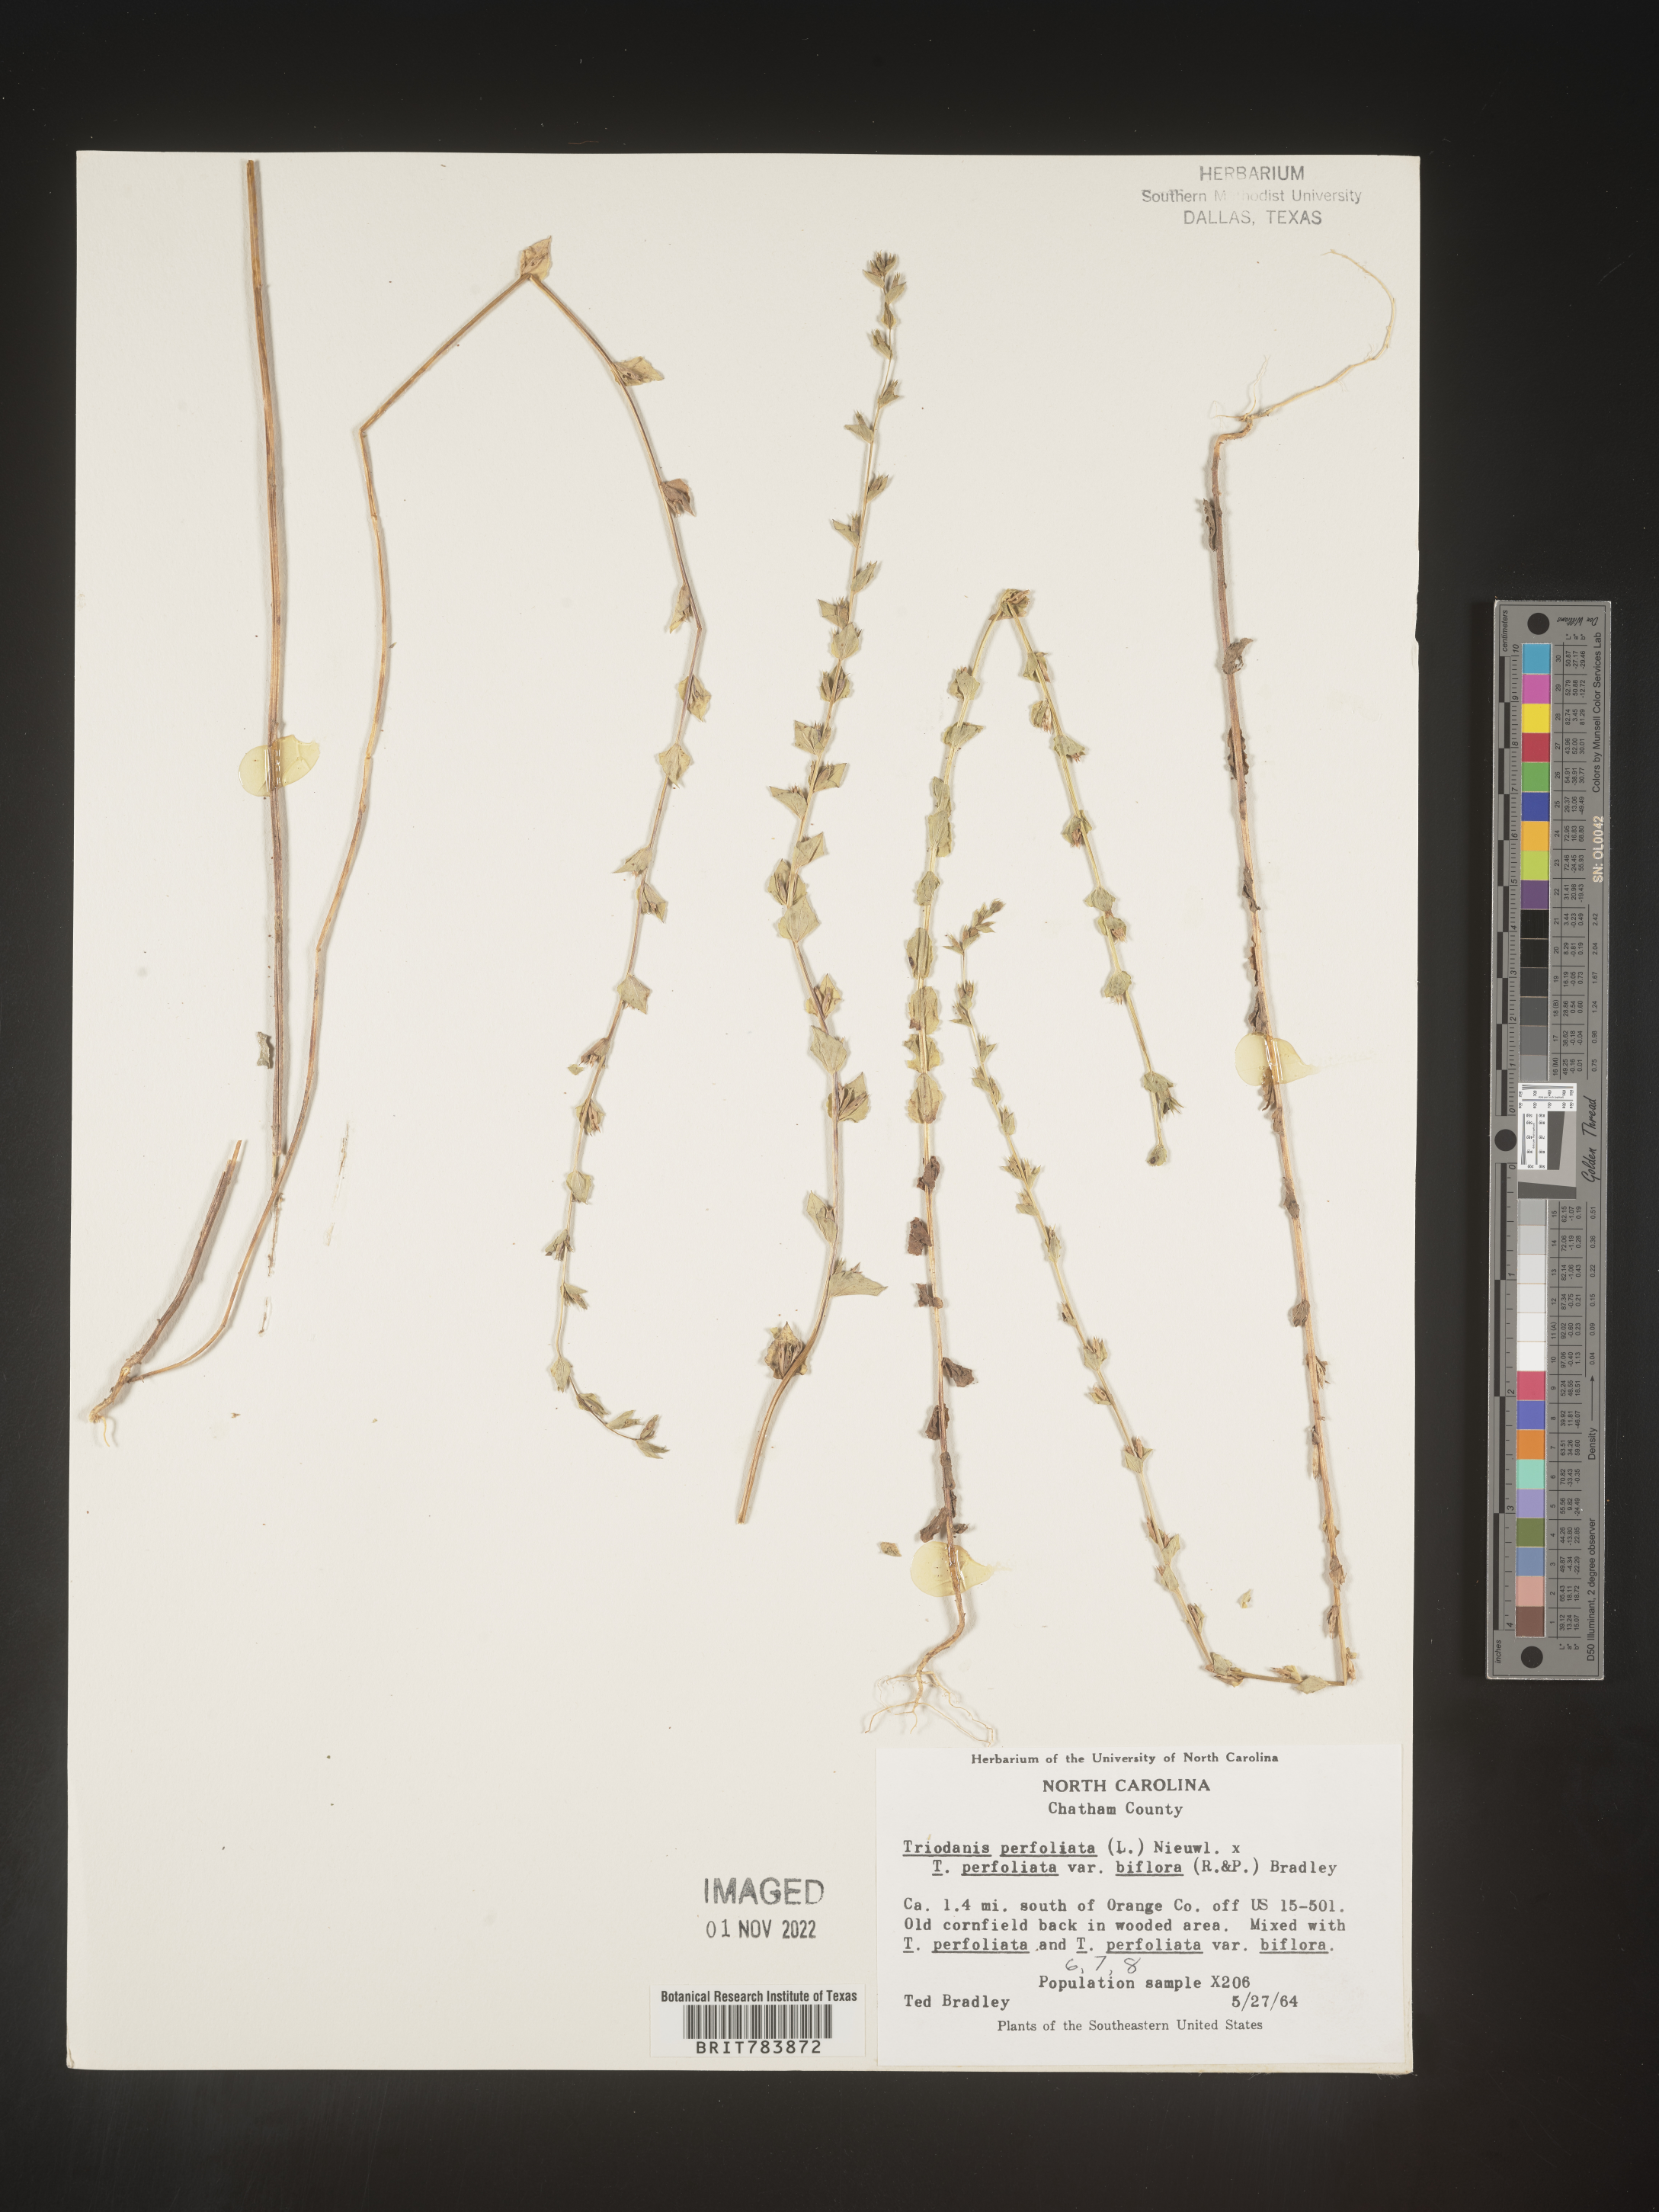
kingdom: Plantae
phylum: Tracheophyta
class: Magnoliopsida
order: Asterales
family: Campanulaceae
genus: Triodanis
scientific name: Triodanis perfoliata
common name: Clasping venus' looking-glass
